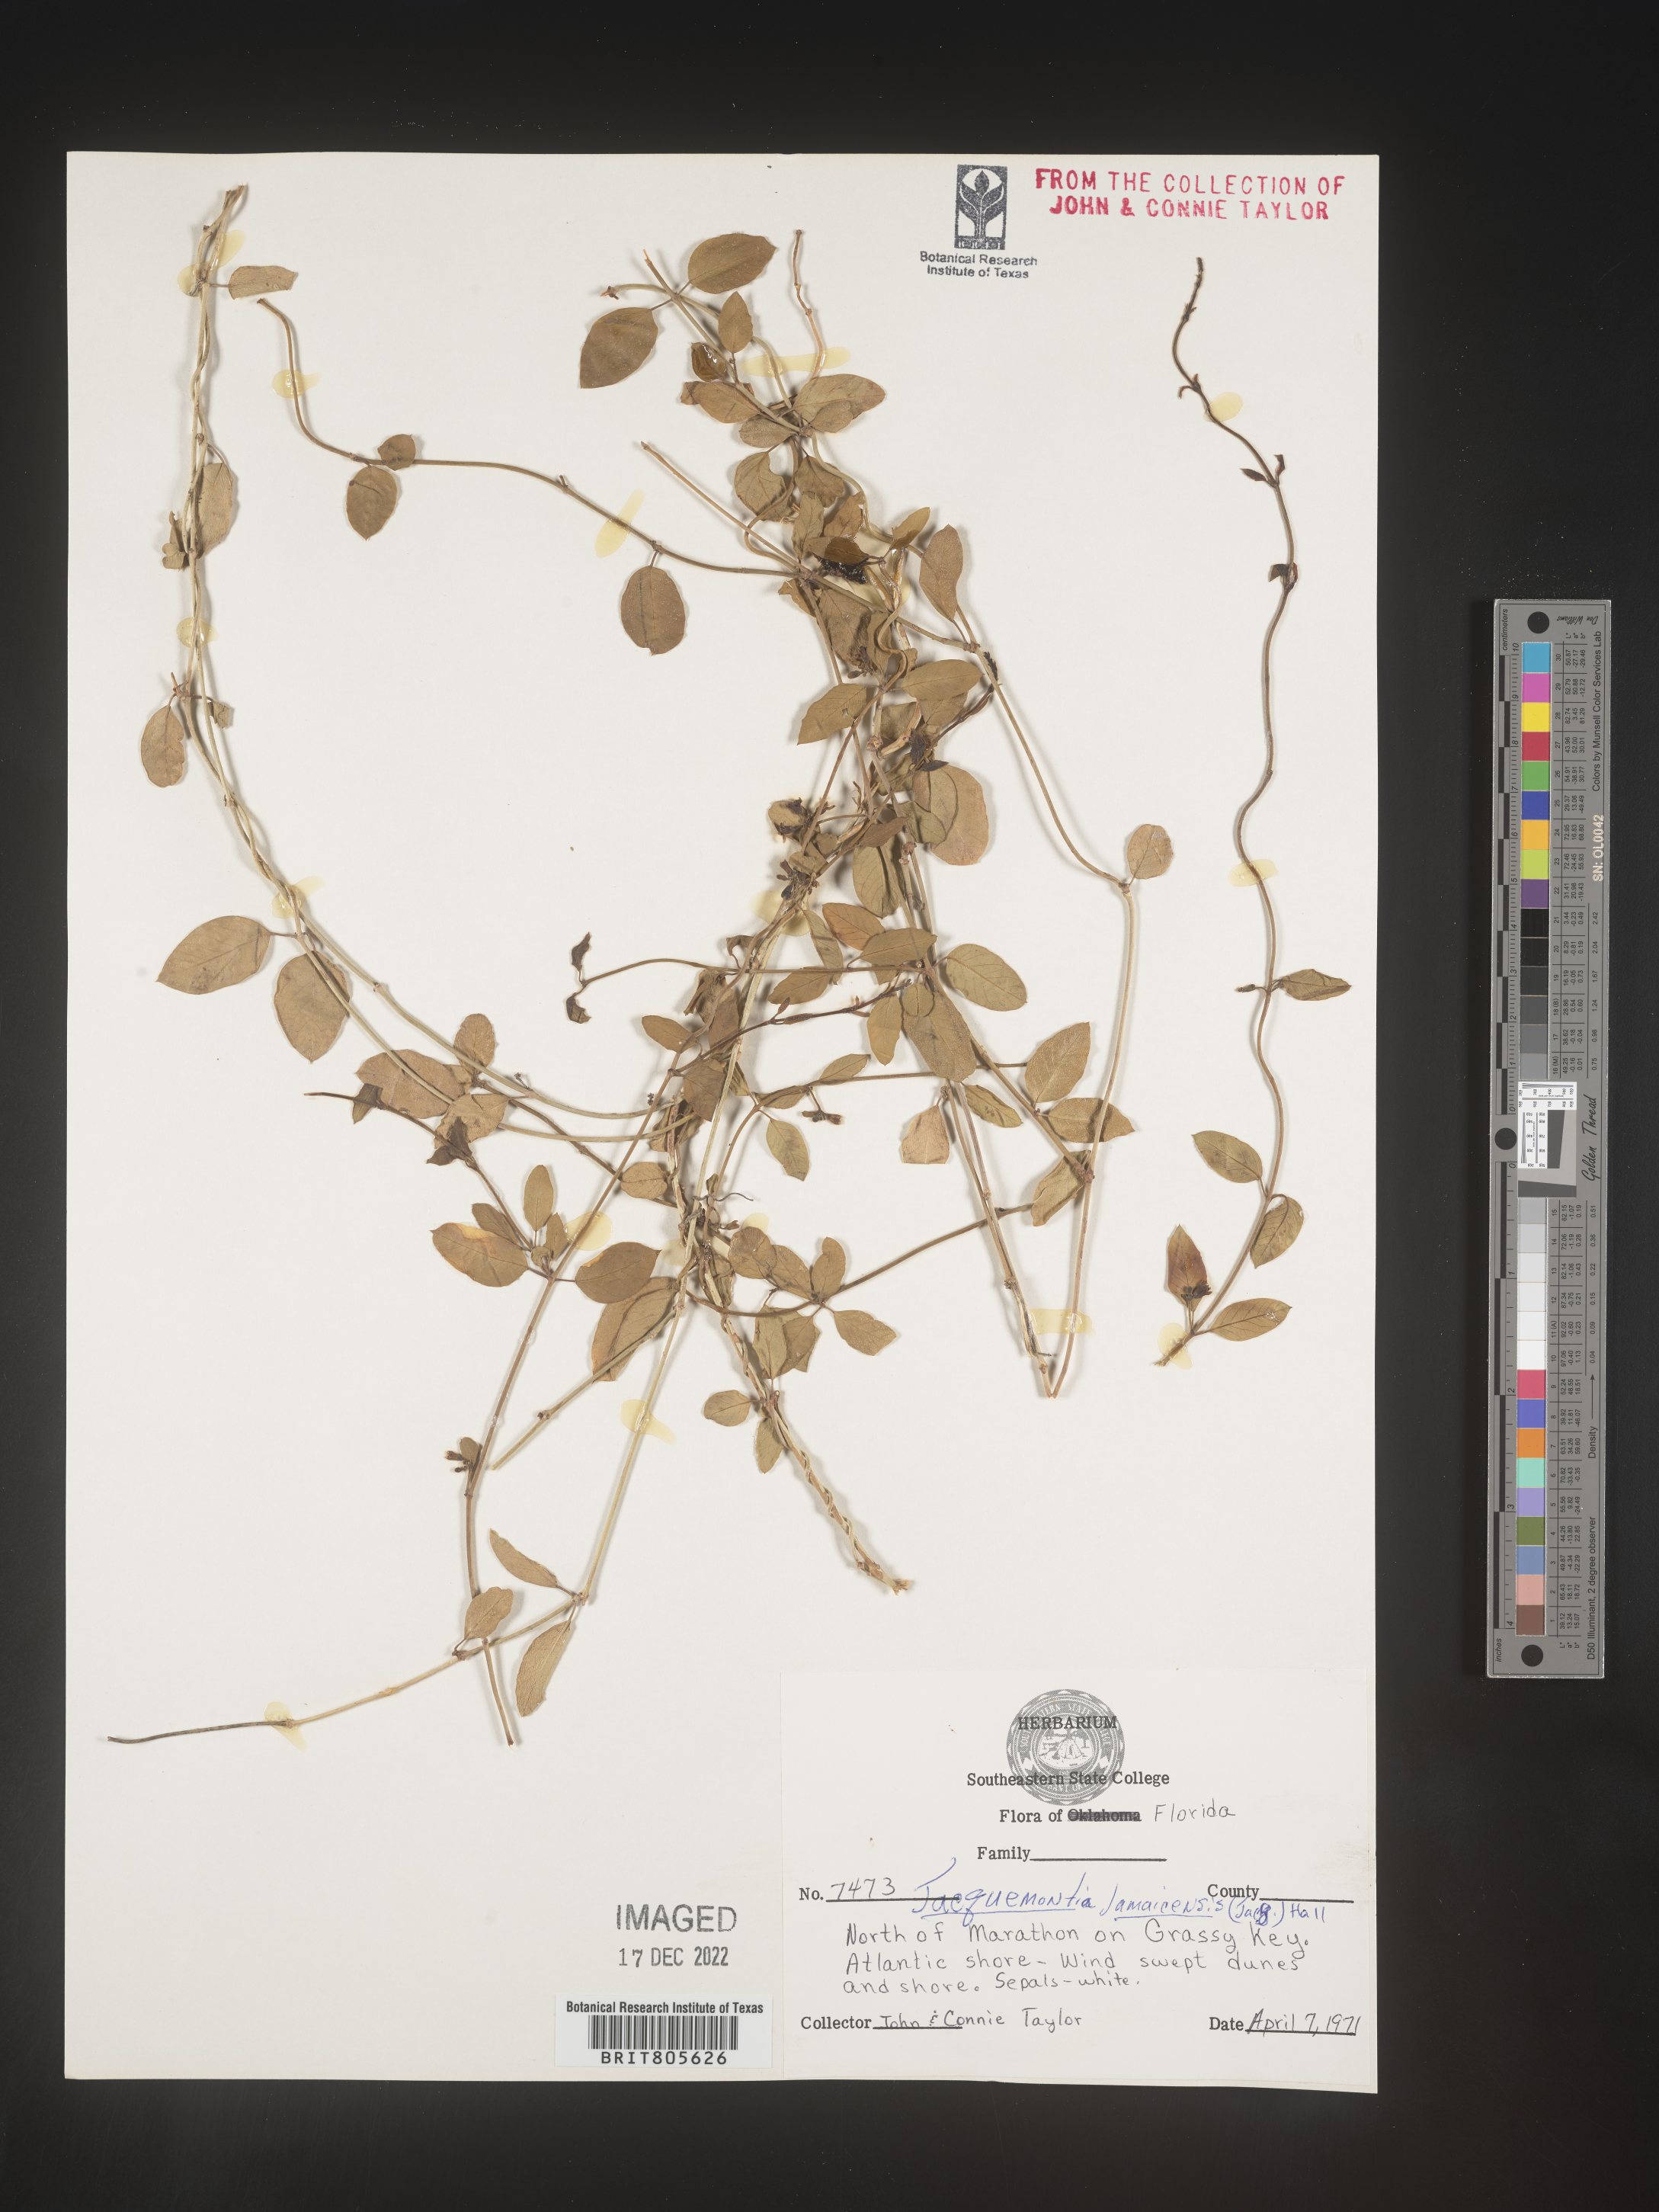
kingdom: Plantae
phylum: Tracheophyta
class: Magnoliopsida
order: Solanales
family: Convolvulaceae
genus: Jacquemontia
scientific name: Jacquemontia
